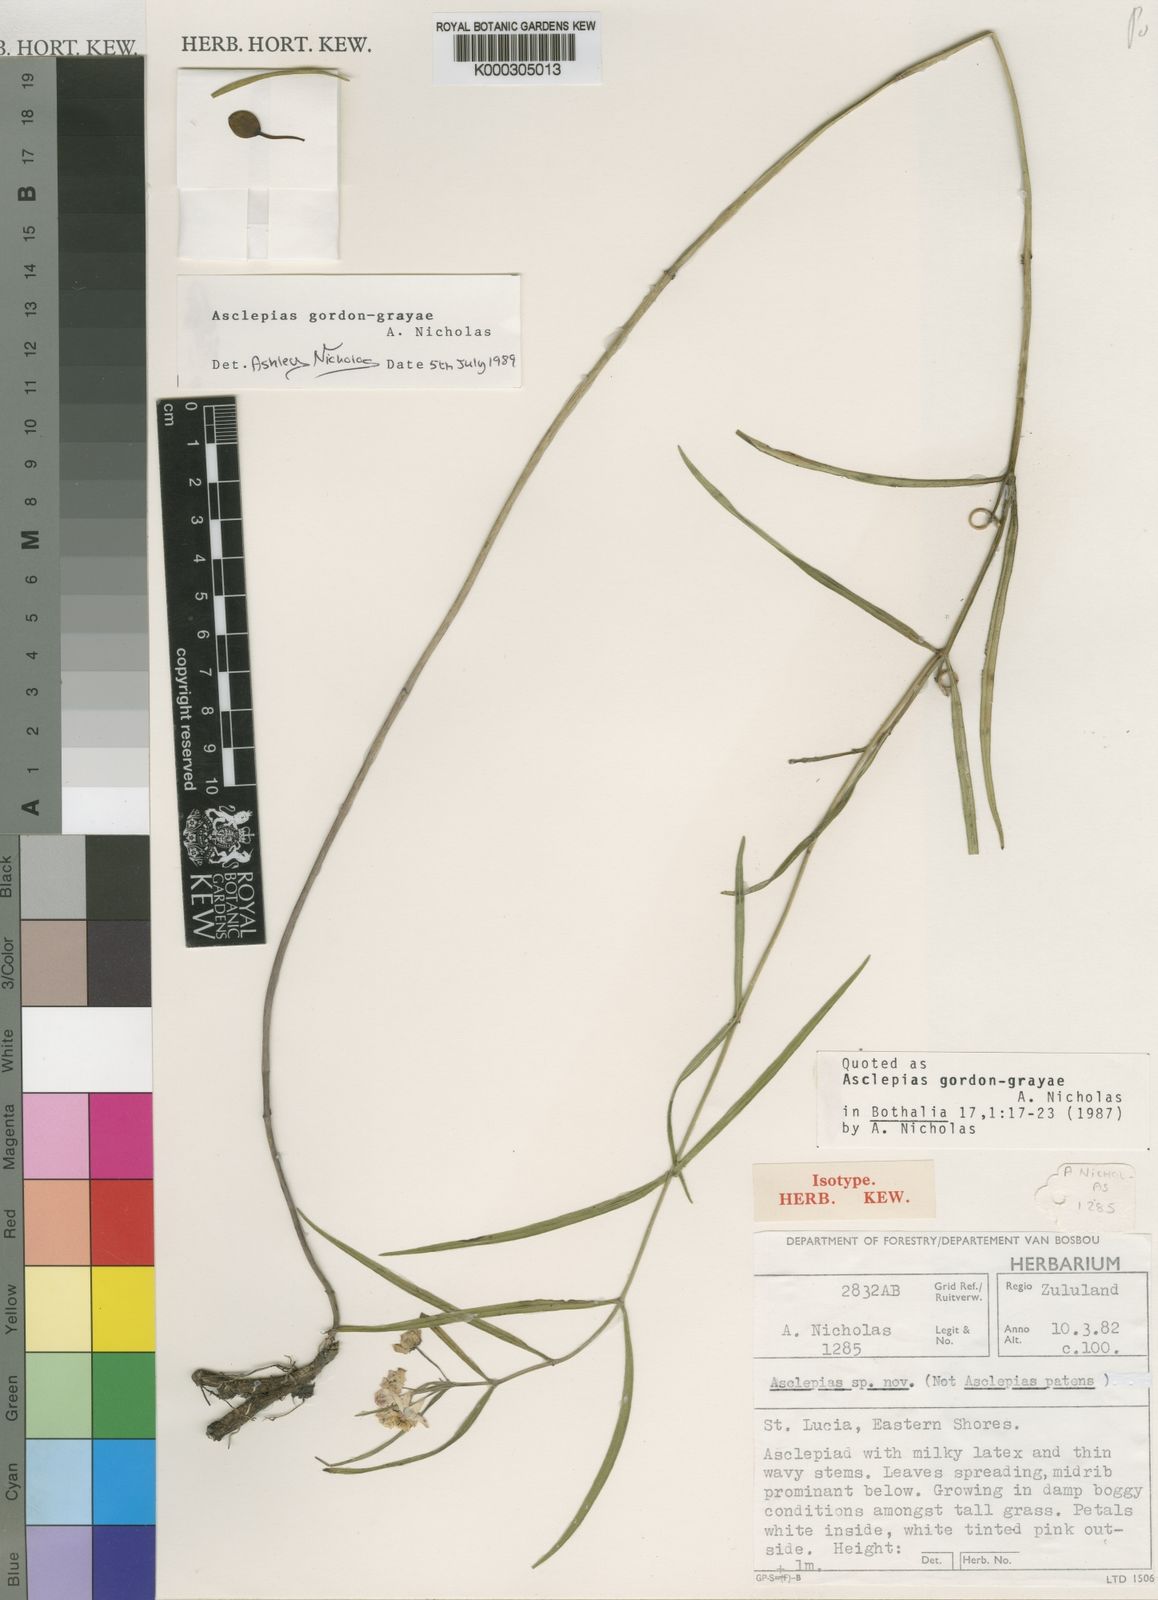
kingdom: Plantae
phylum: Tracheophyta
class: Magnoliopsida
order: Gentianales
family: Apocynaceae
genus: Asclepias
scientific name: Asclepias gordon-grayae
